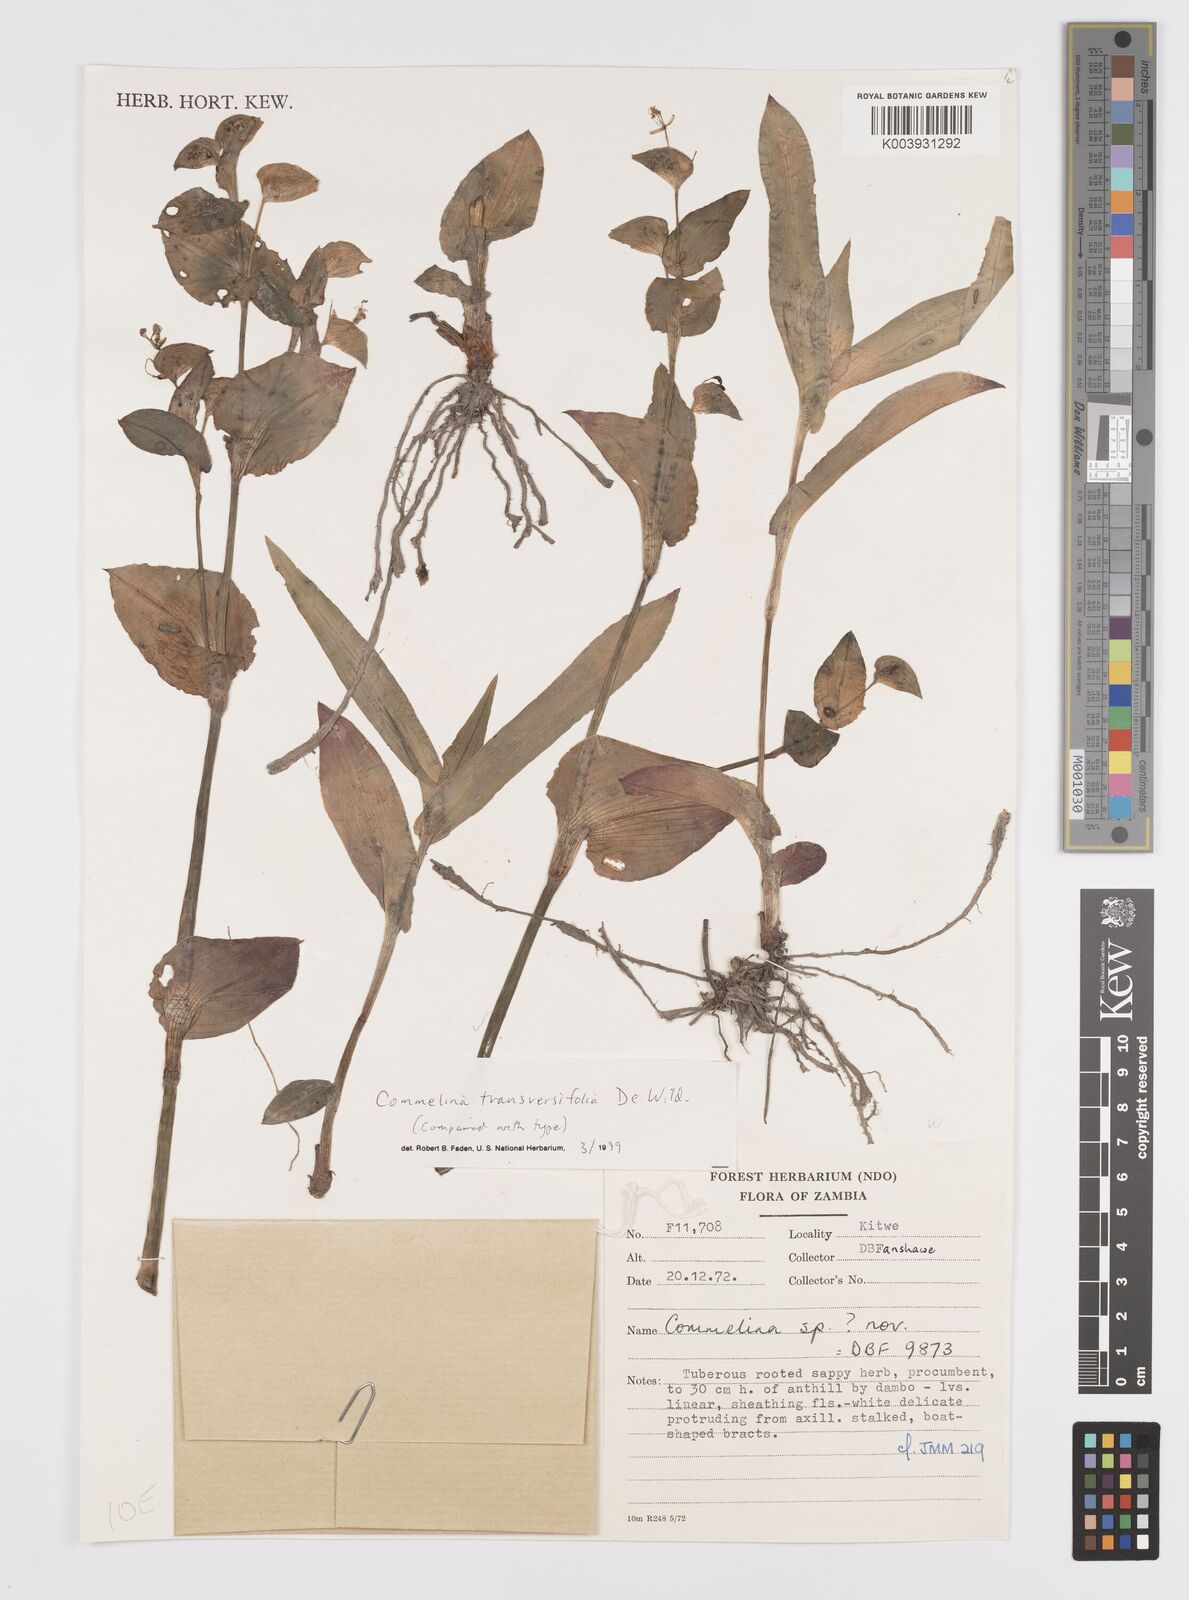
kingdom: Plantae
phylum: Tracheophyta
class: Liliopsida
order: Commelinales
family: Commelinaceae
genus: Commelina
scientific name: Commelina transversifolia
